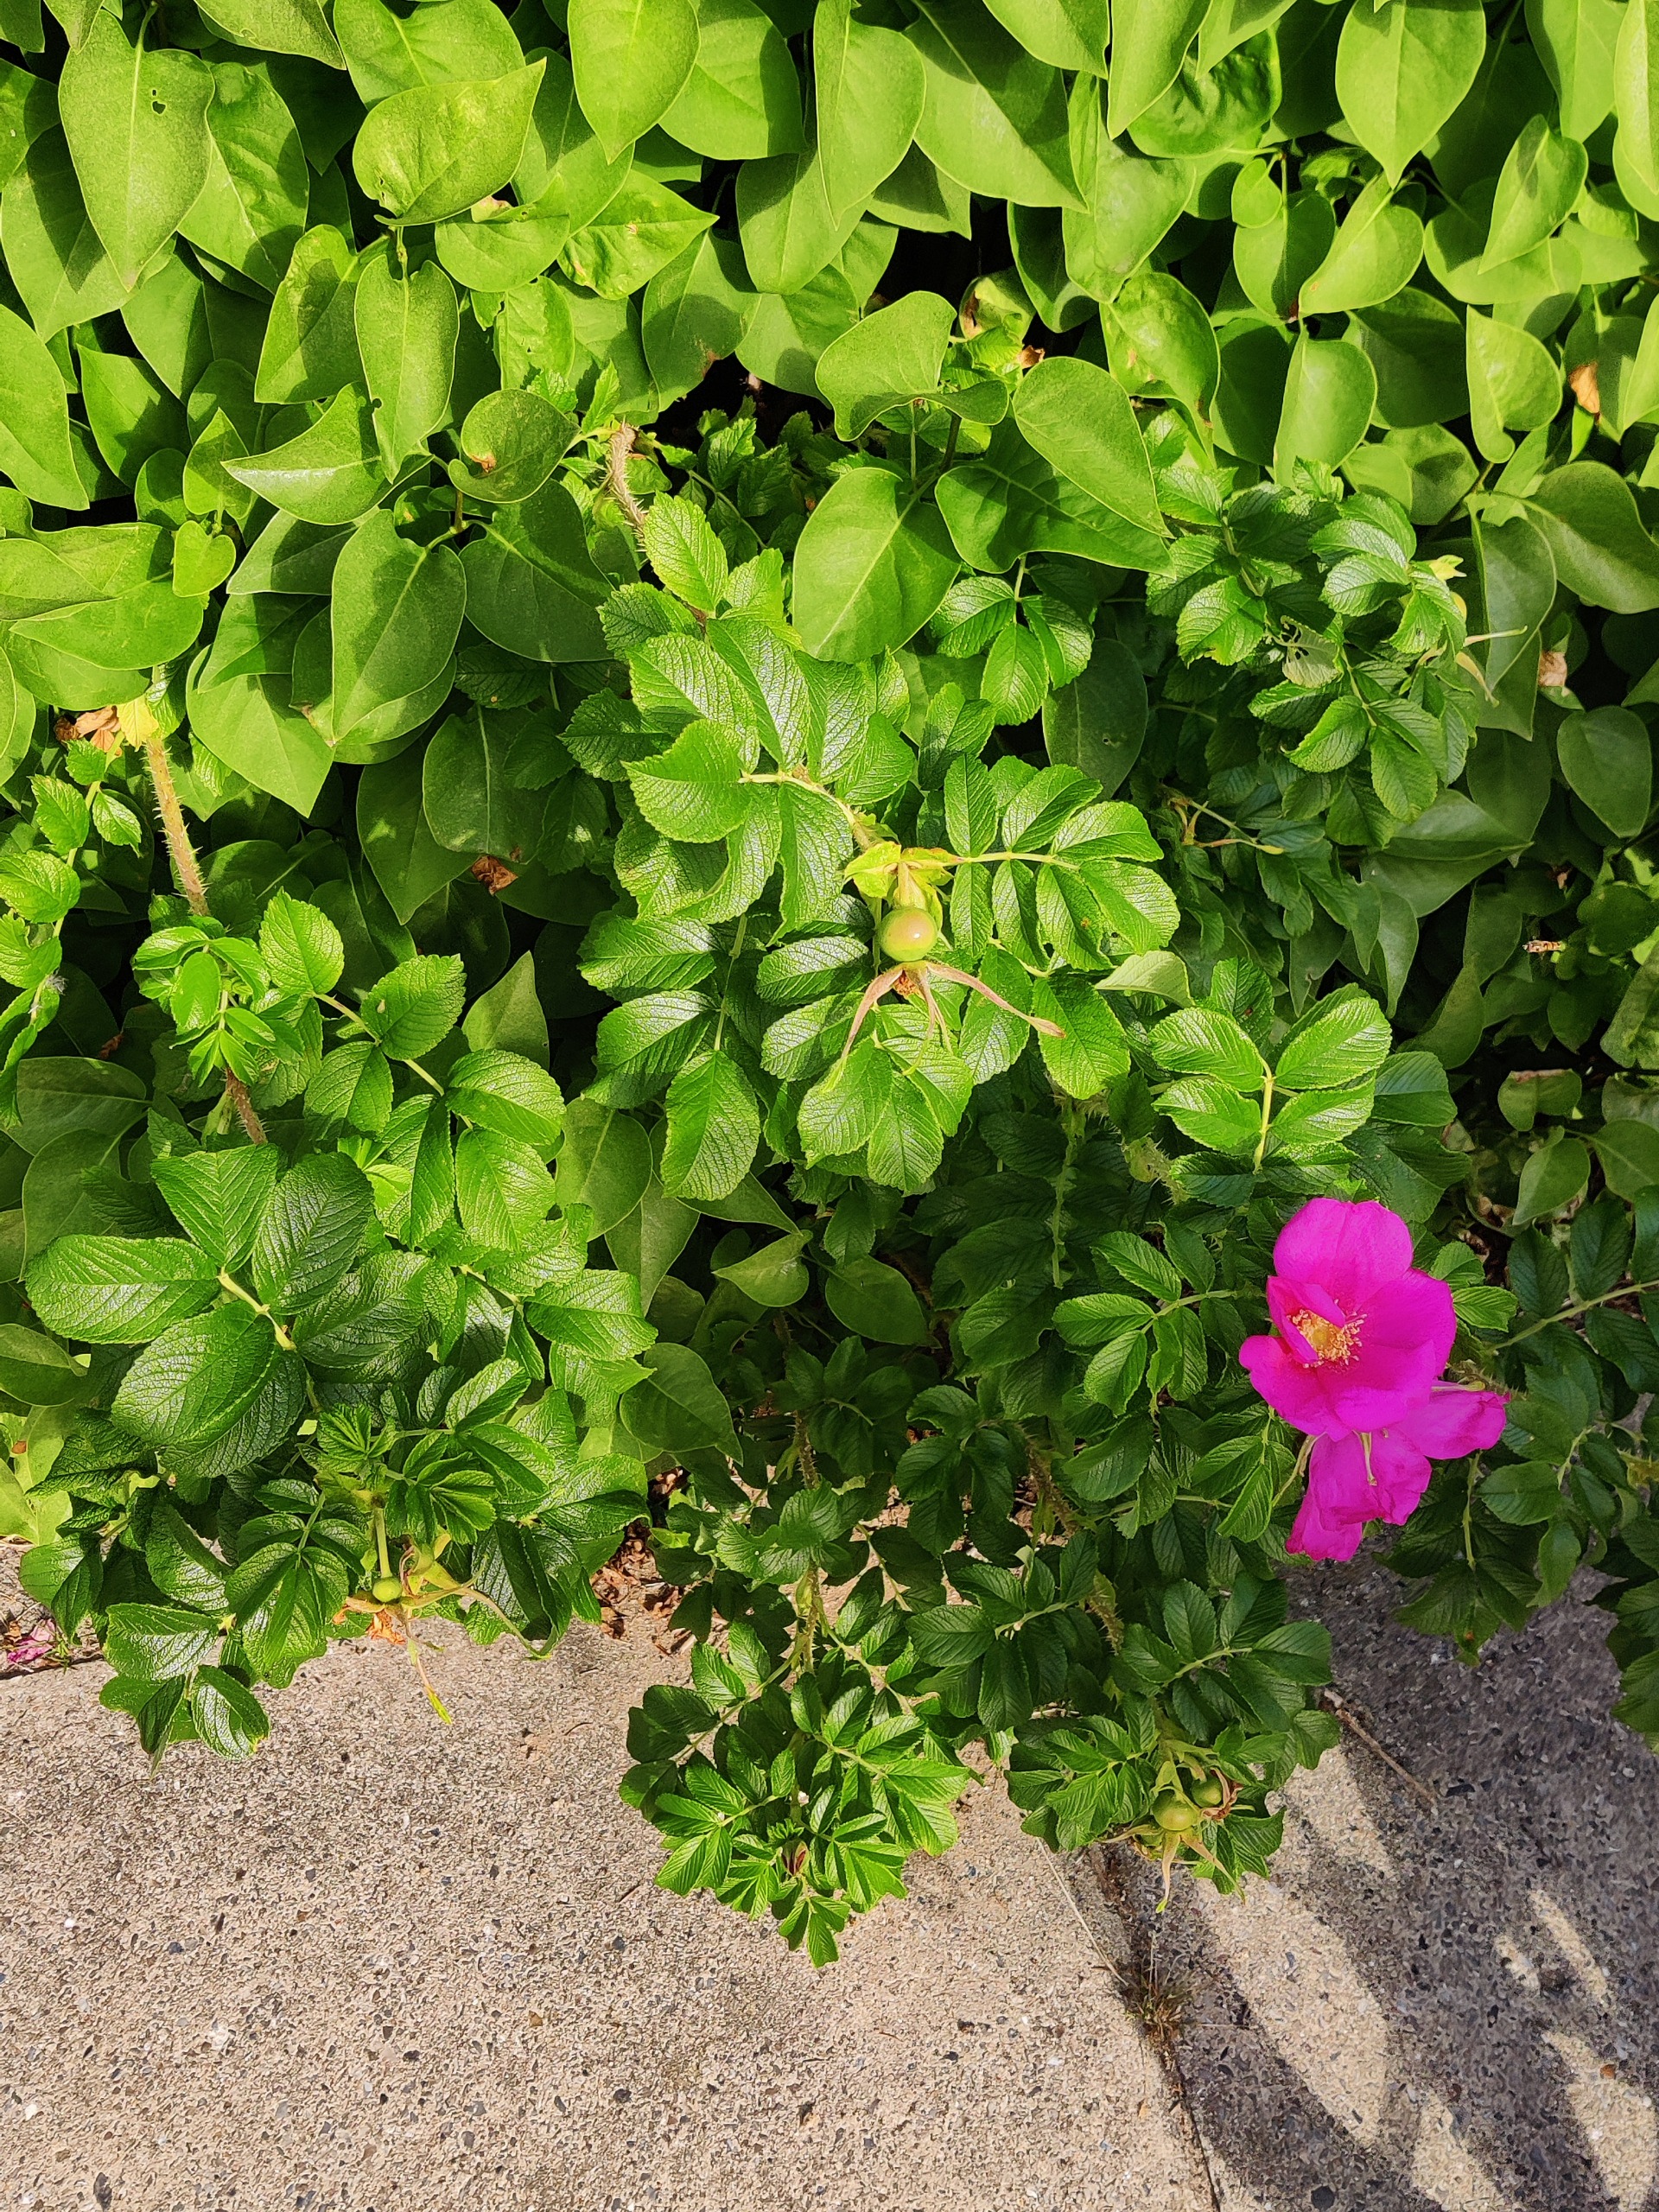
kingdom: Plantae
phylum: Tracheophyta
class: Magnoliopsida
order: Rosales
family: Rosaceae
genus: Rosa
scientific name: Rosa rugosa
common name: Rynket rose
